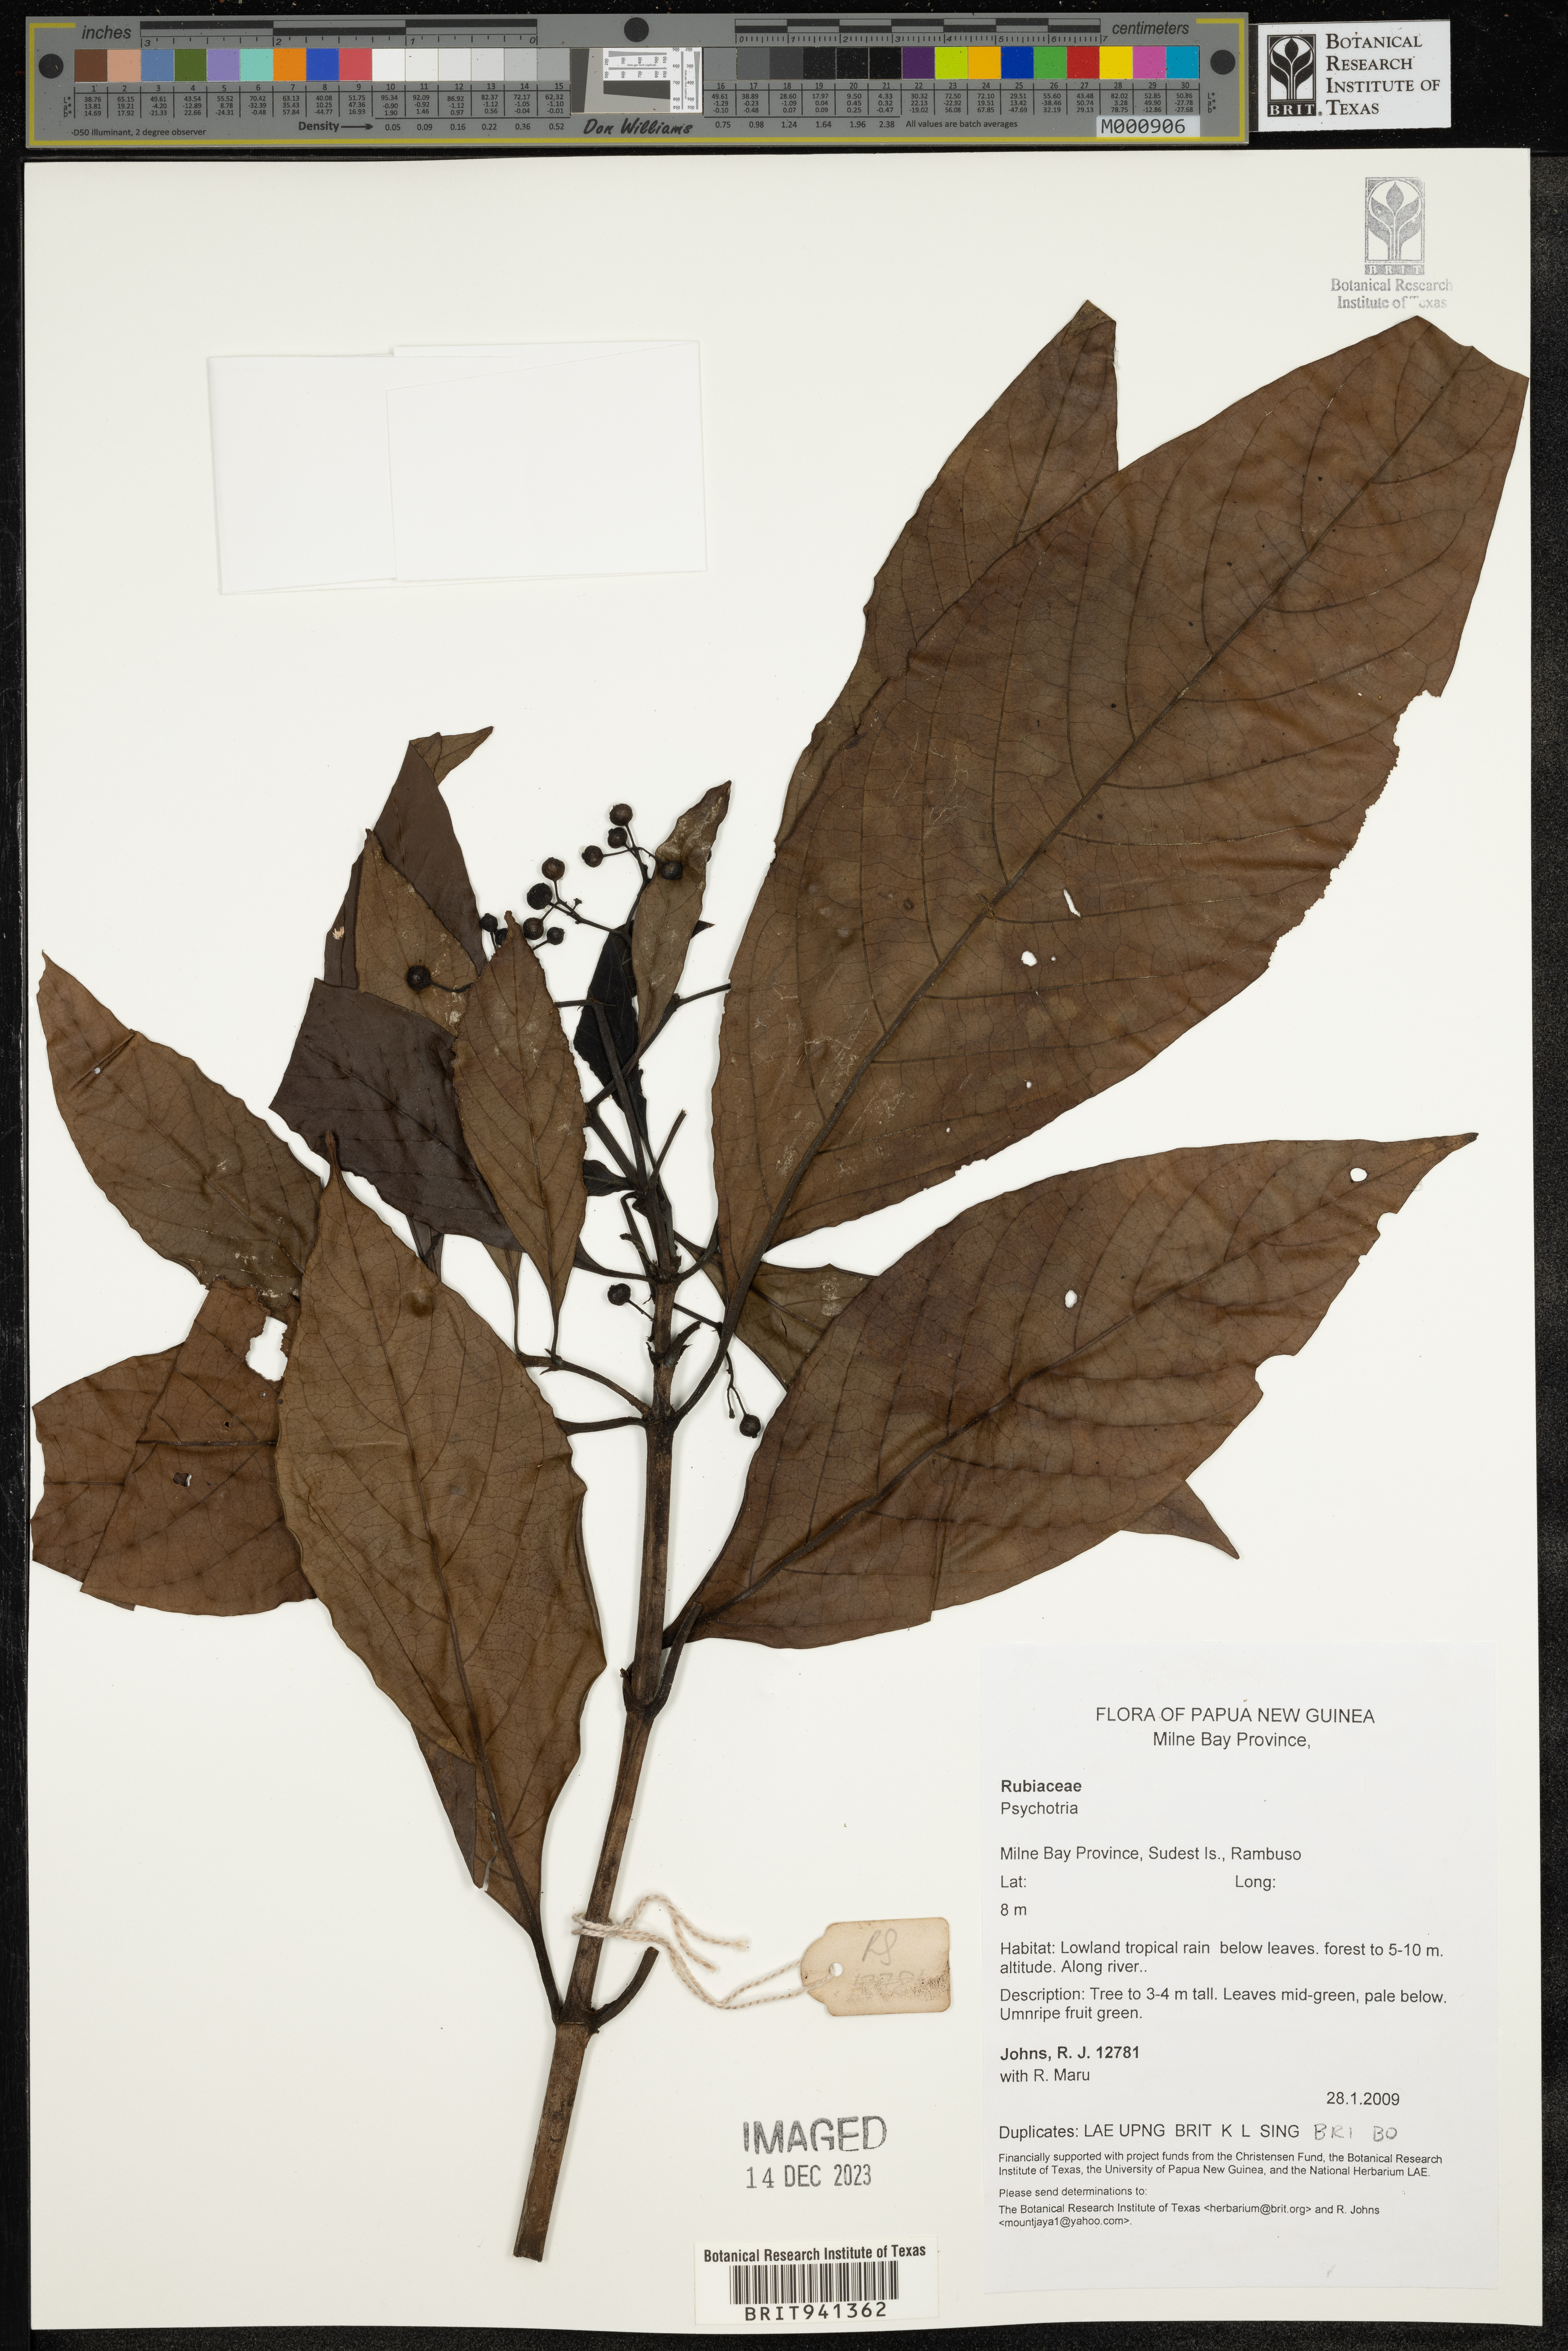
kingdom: Plantae
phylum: Tracheophyta
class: Magnoliopsida
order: Gentianales
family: Rubiaceae
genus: Psychotria
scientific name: Psychotria
